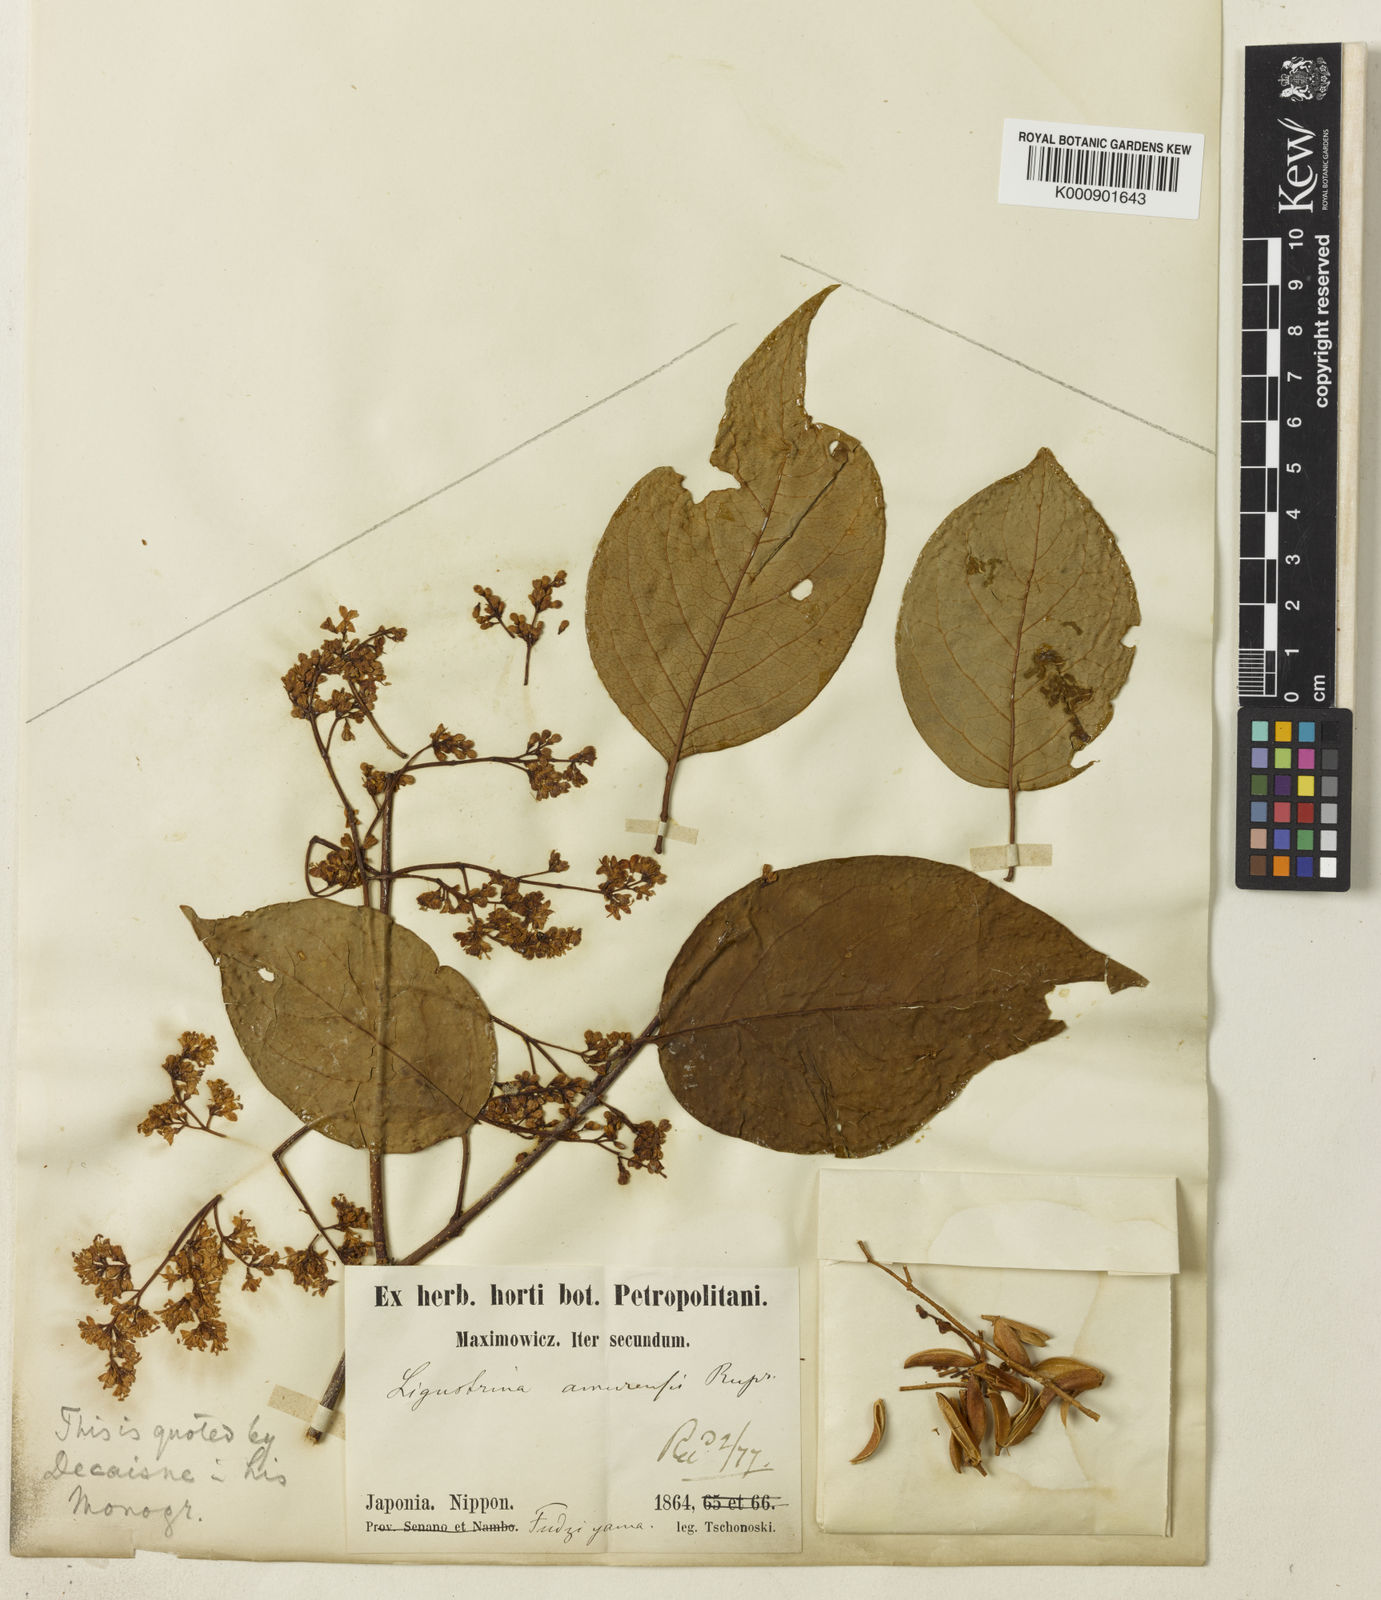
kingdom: Plantae
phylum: Tracheophyta
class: Magnoliopsida
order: Lamiales
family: Oleaceae
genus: Syringa
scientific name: Syringa reticulata
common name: Japanese tree lilac
